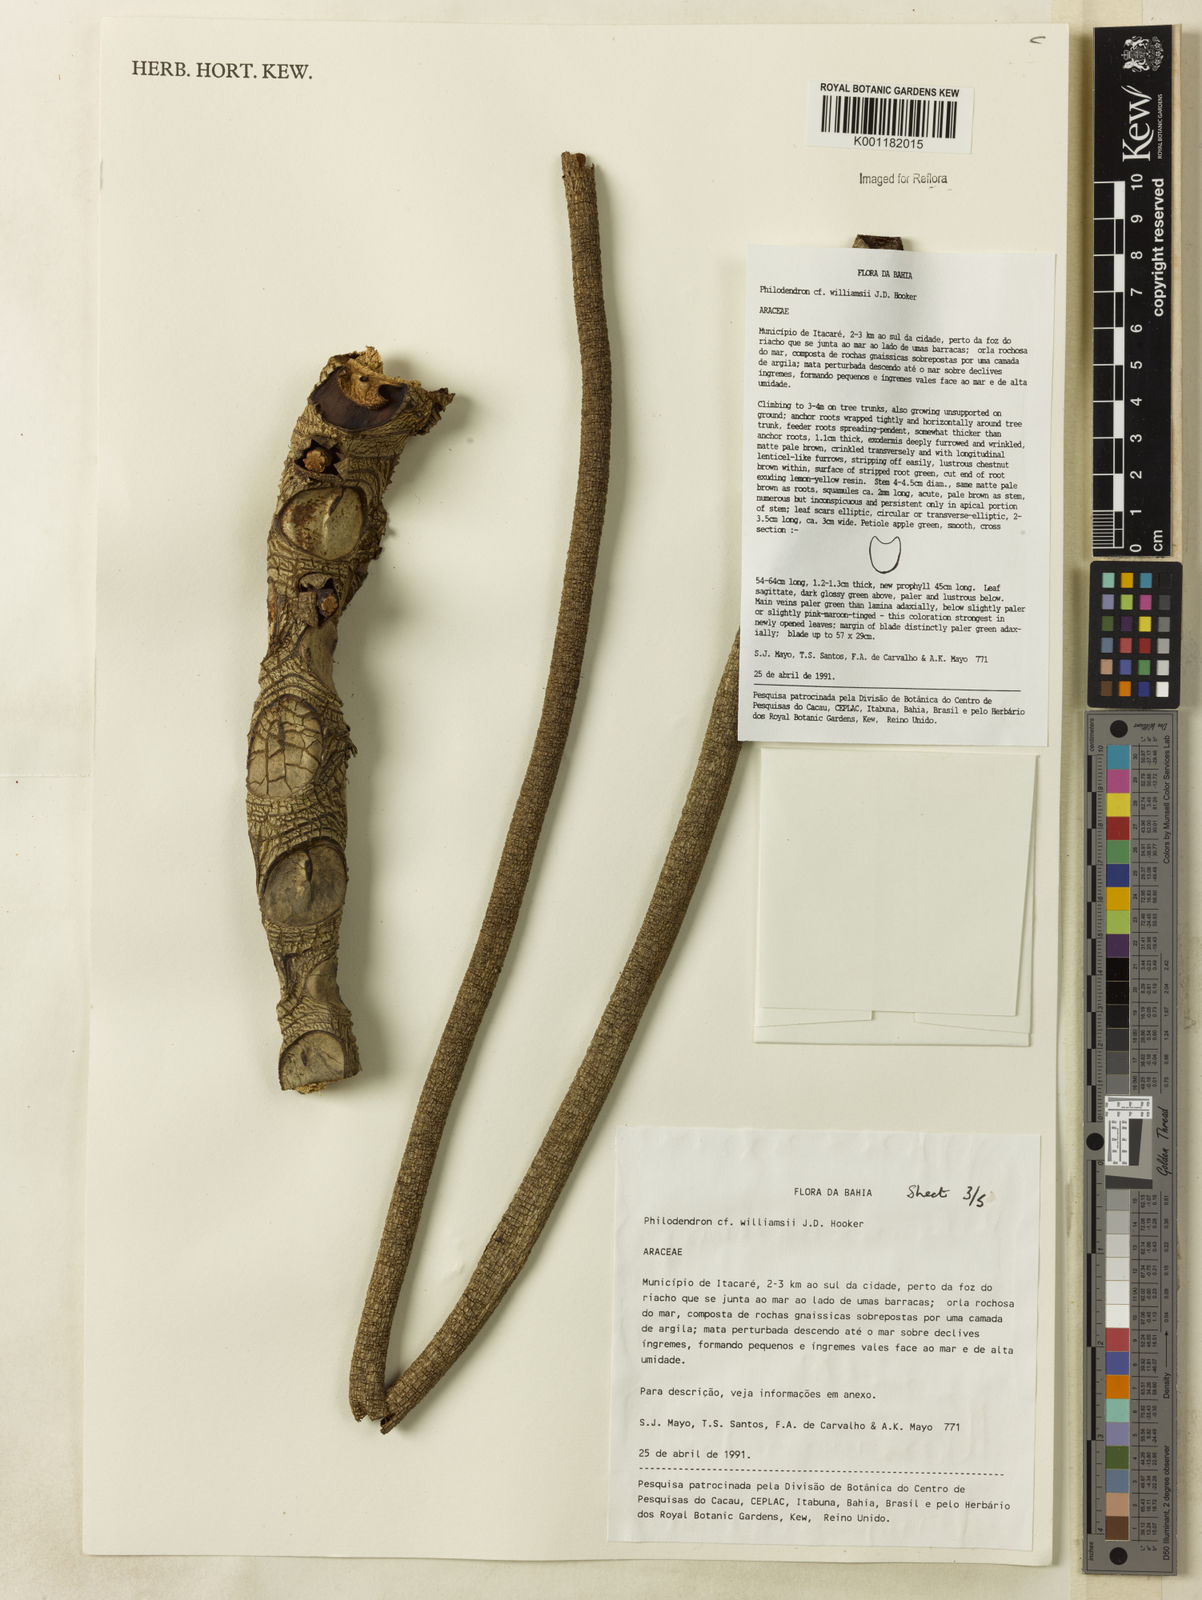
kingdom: Plantae
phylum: Tracheophyta
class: Liliopsida
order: Alismatales
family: Araceae
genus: Thaumatophyllum
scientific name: Thaumatophyllum williamsii
